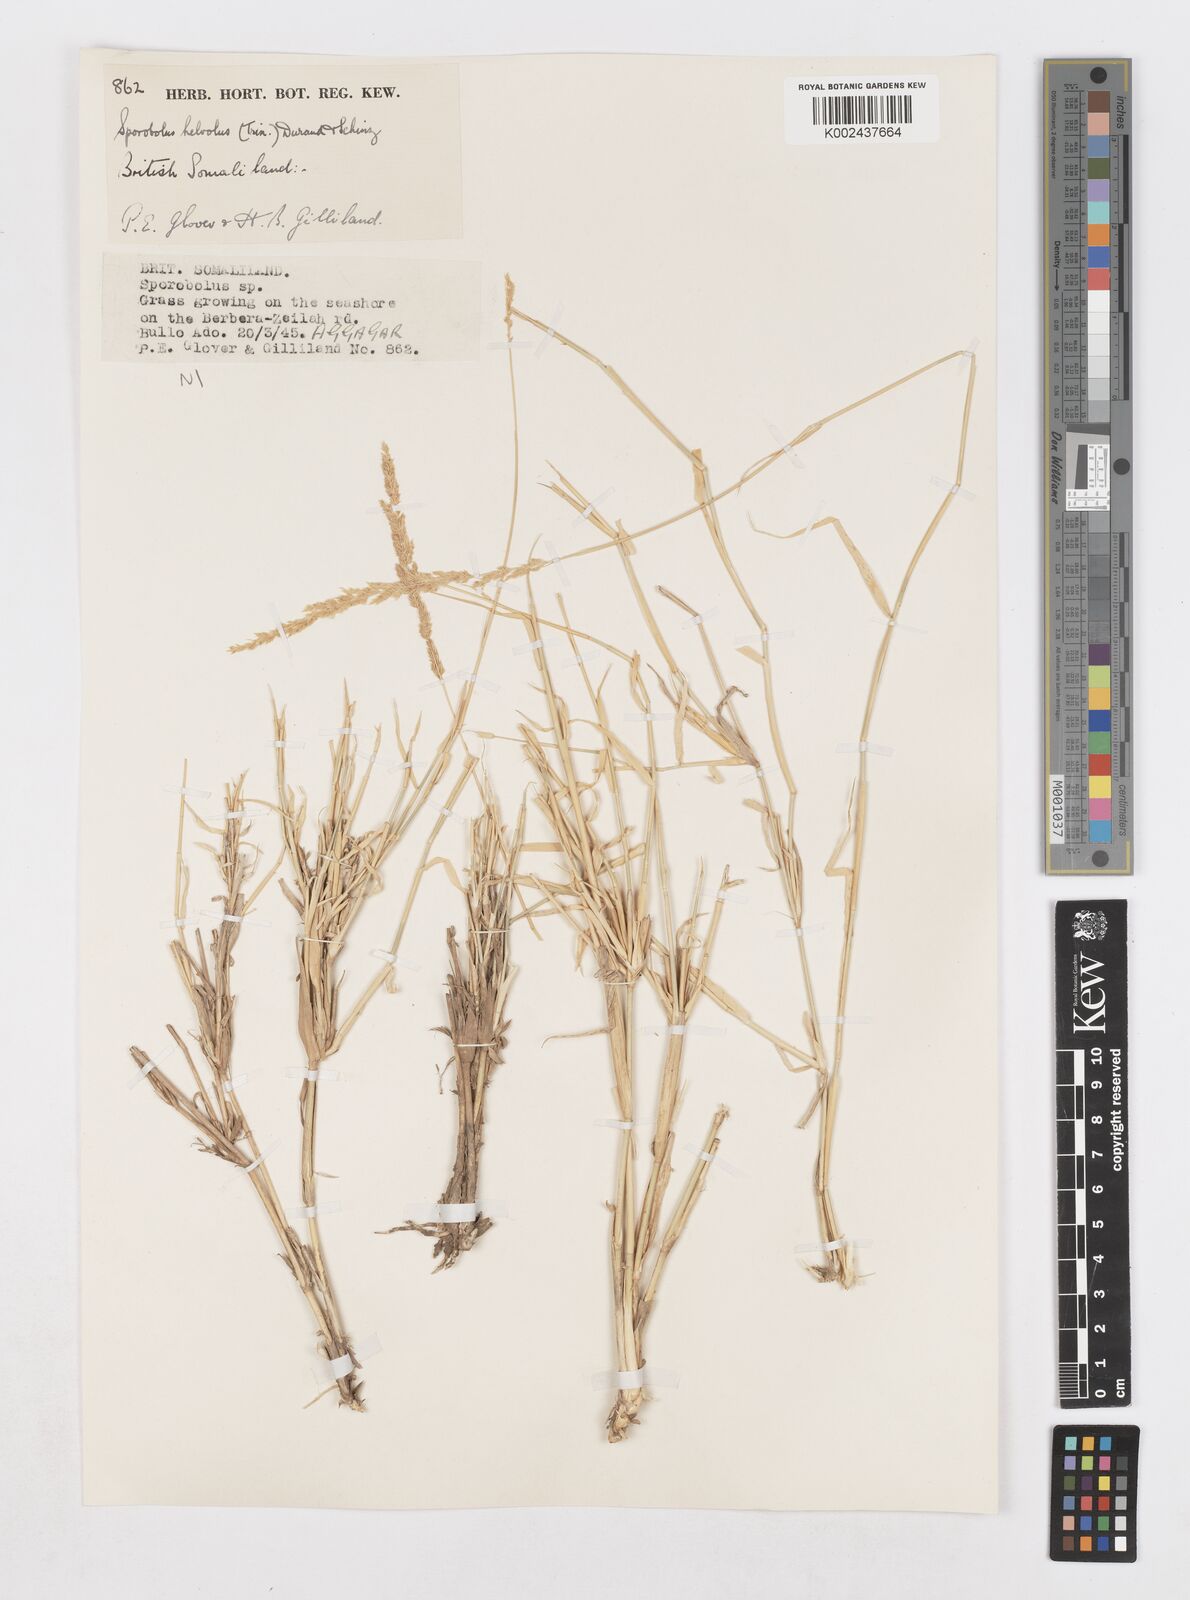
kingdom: Plantae
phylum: Tracheophyta
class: Liliopsida
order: Poales
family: Poaceae
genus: Sporobolus
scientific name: Sporobolus helvolus
